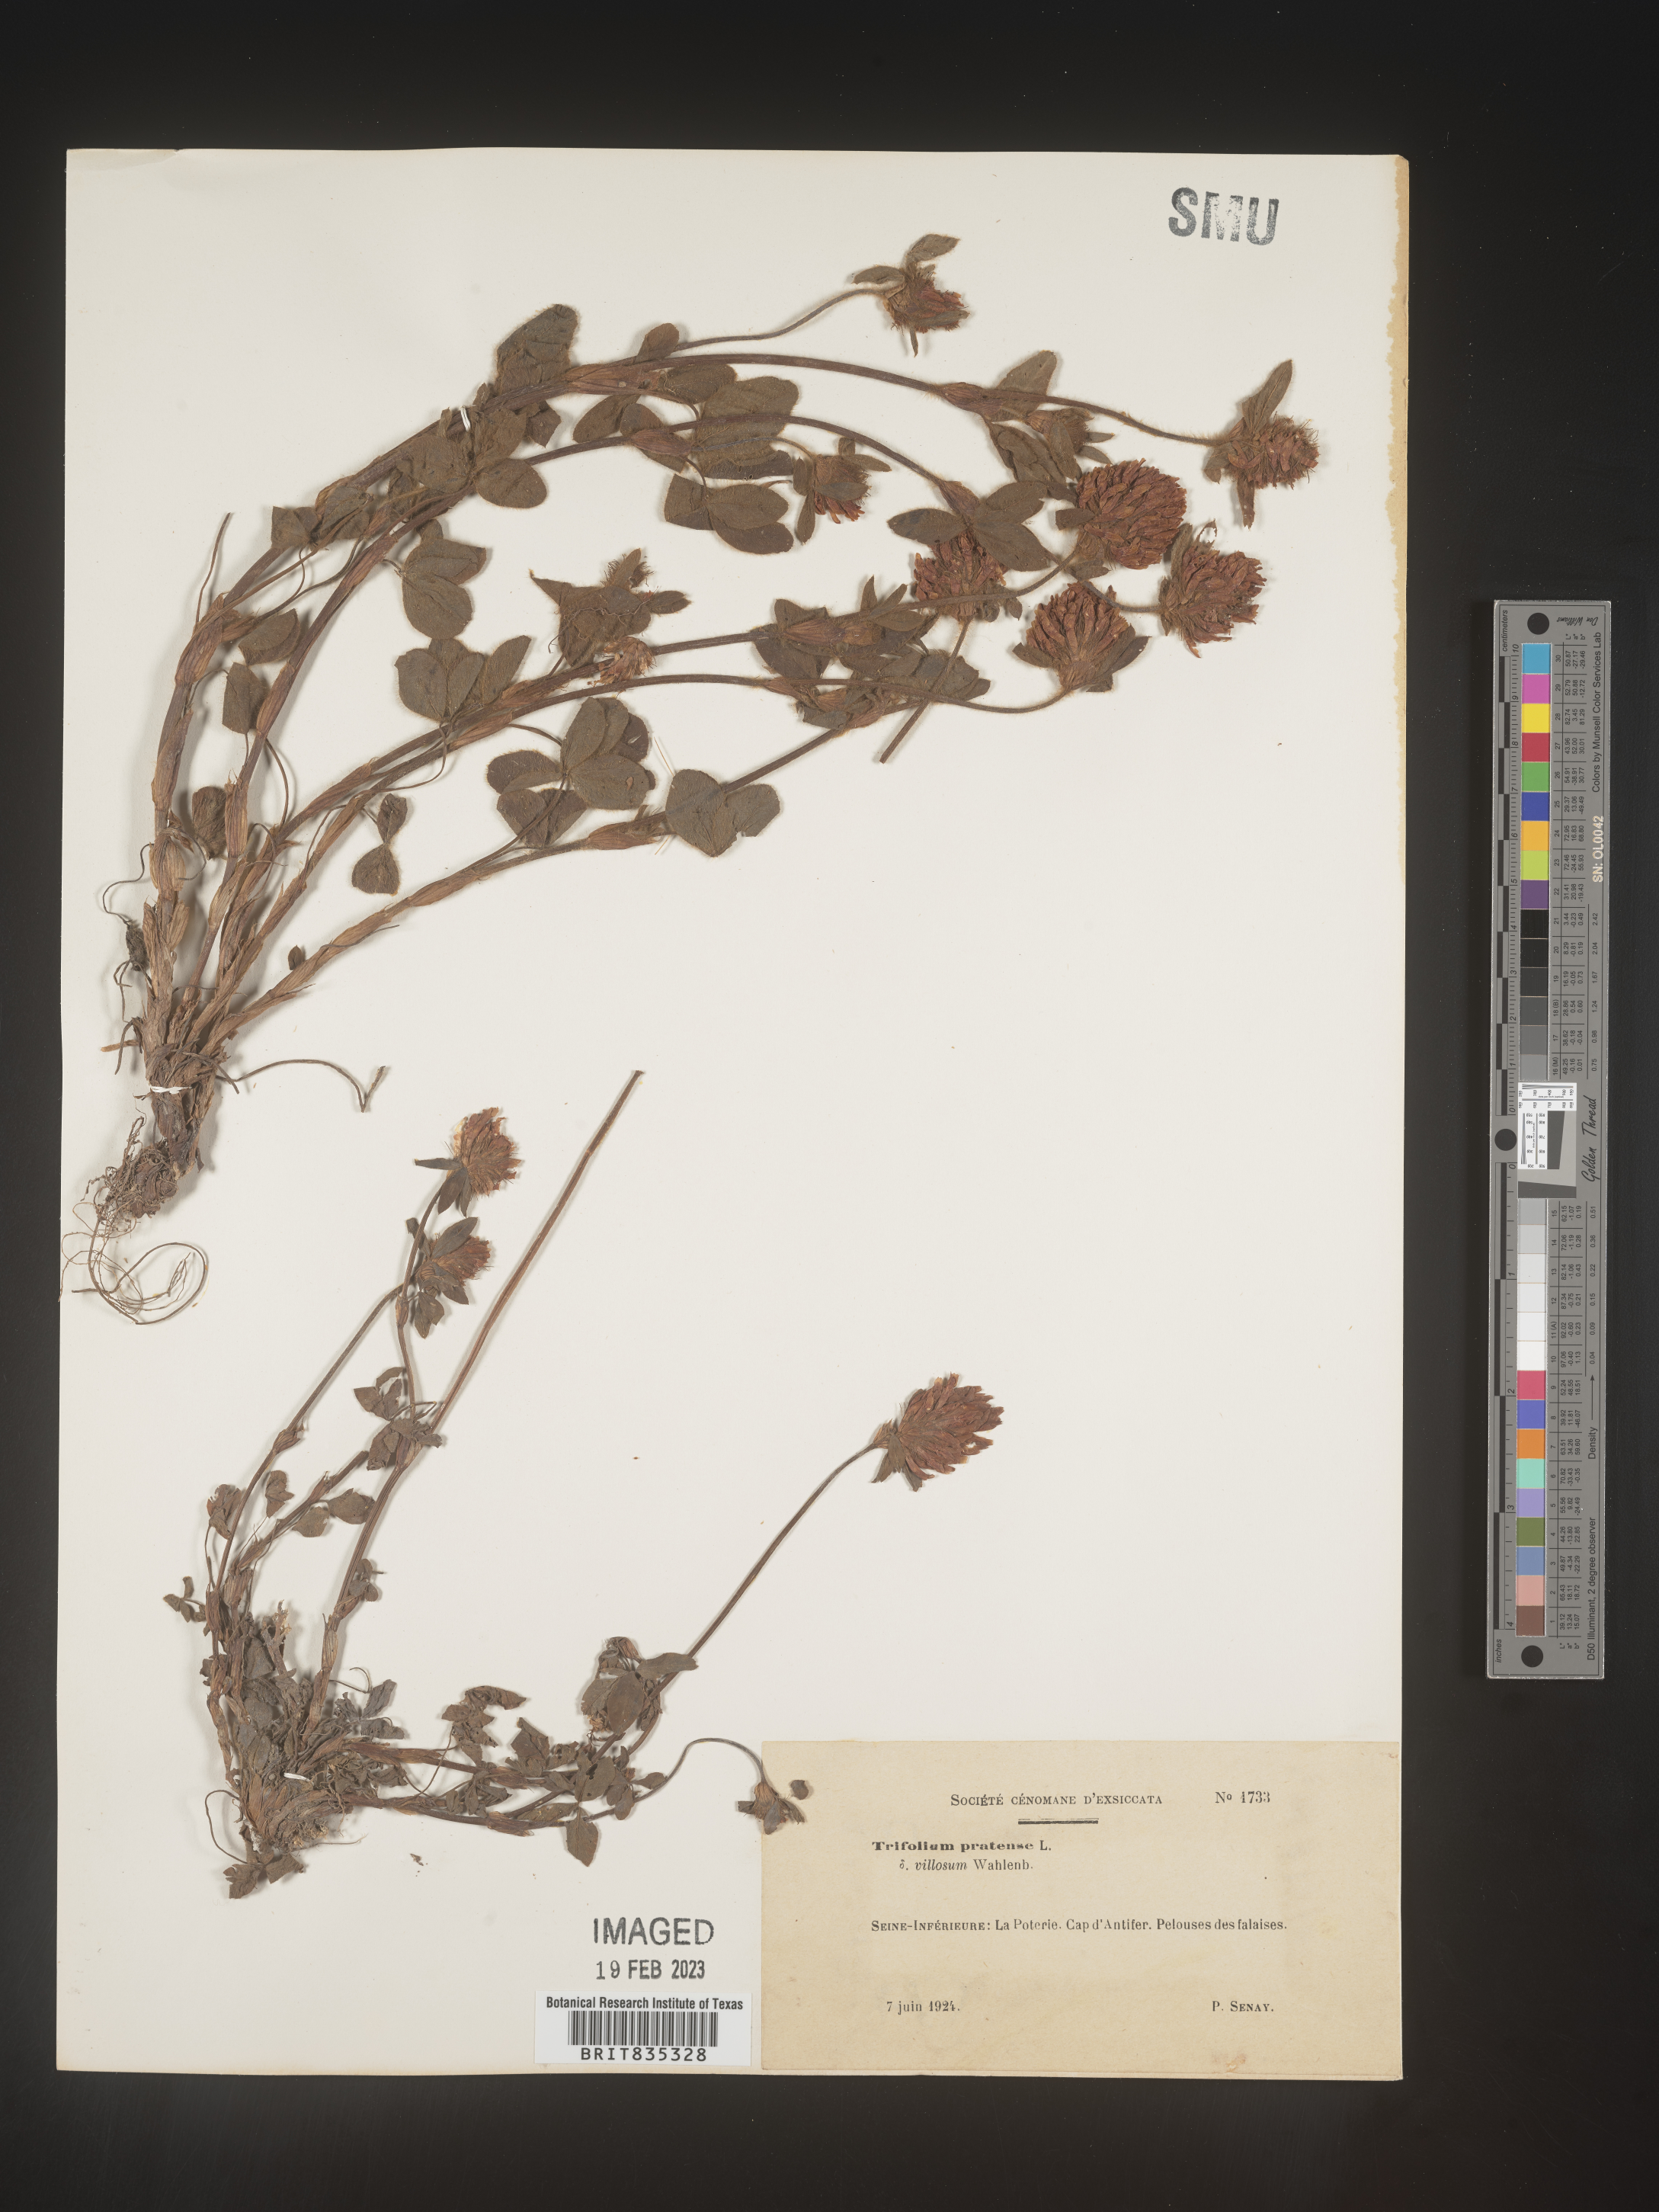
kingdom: Plantae
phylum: Tracheophyta
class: Magnoliopsida
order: Fabales
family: Fabaceae
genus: Trifolium
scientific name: Trifolium
